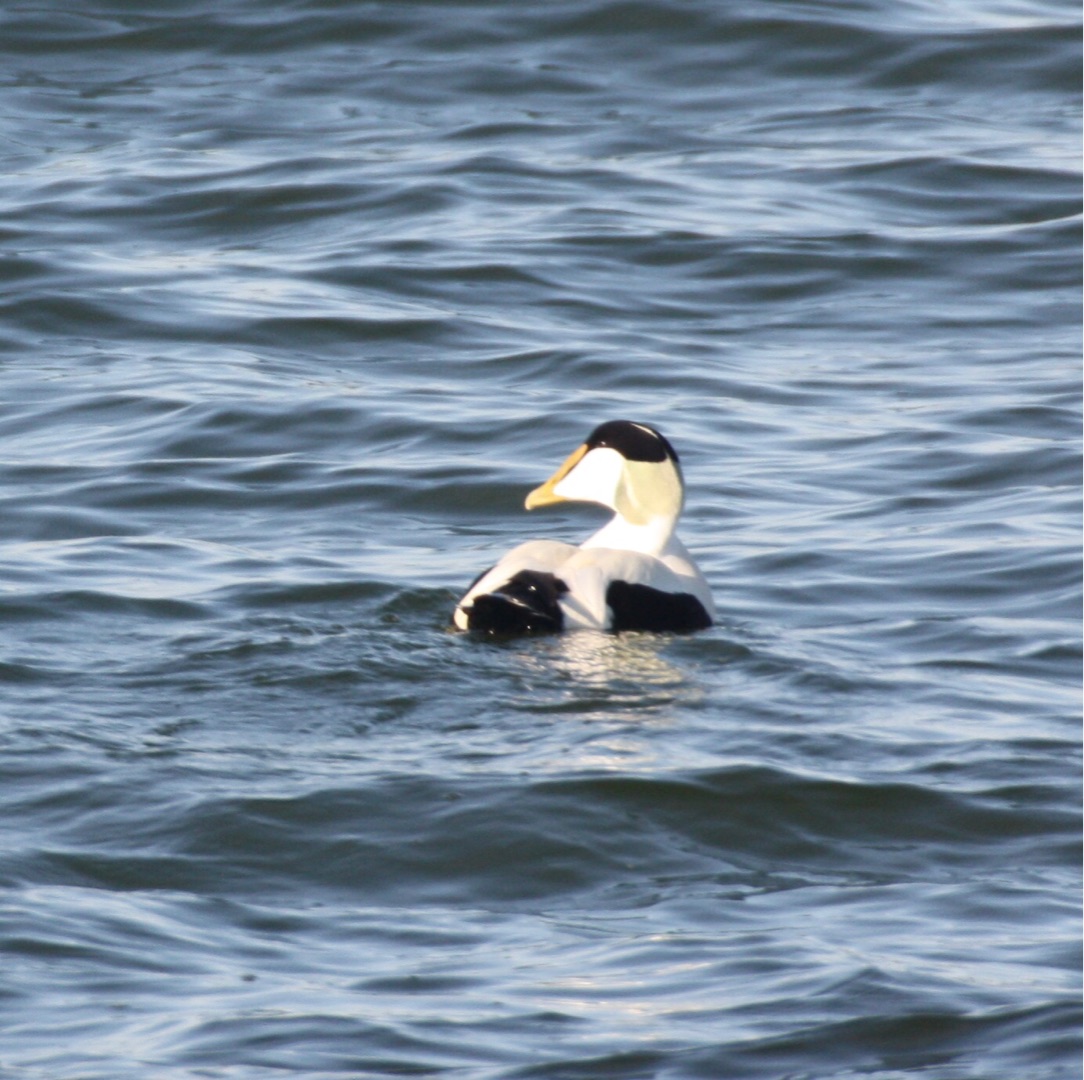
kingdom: Animalia
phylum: Chordata
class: Aves
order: Anseriformes
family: Anatidae
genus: Somateria
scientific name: Somateria mollissima
